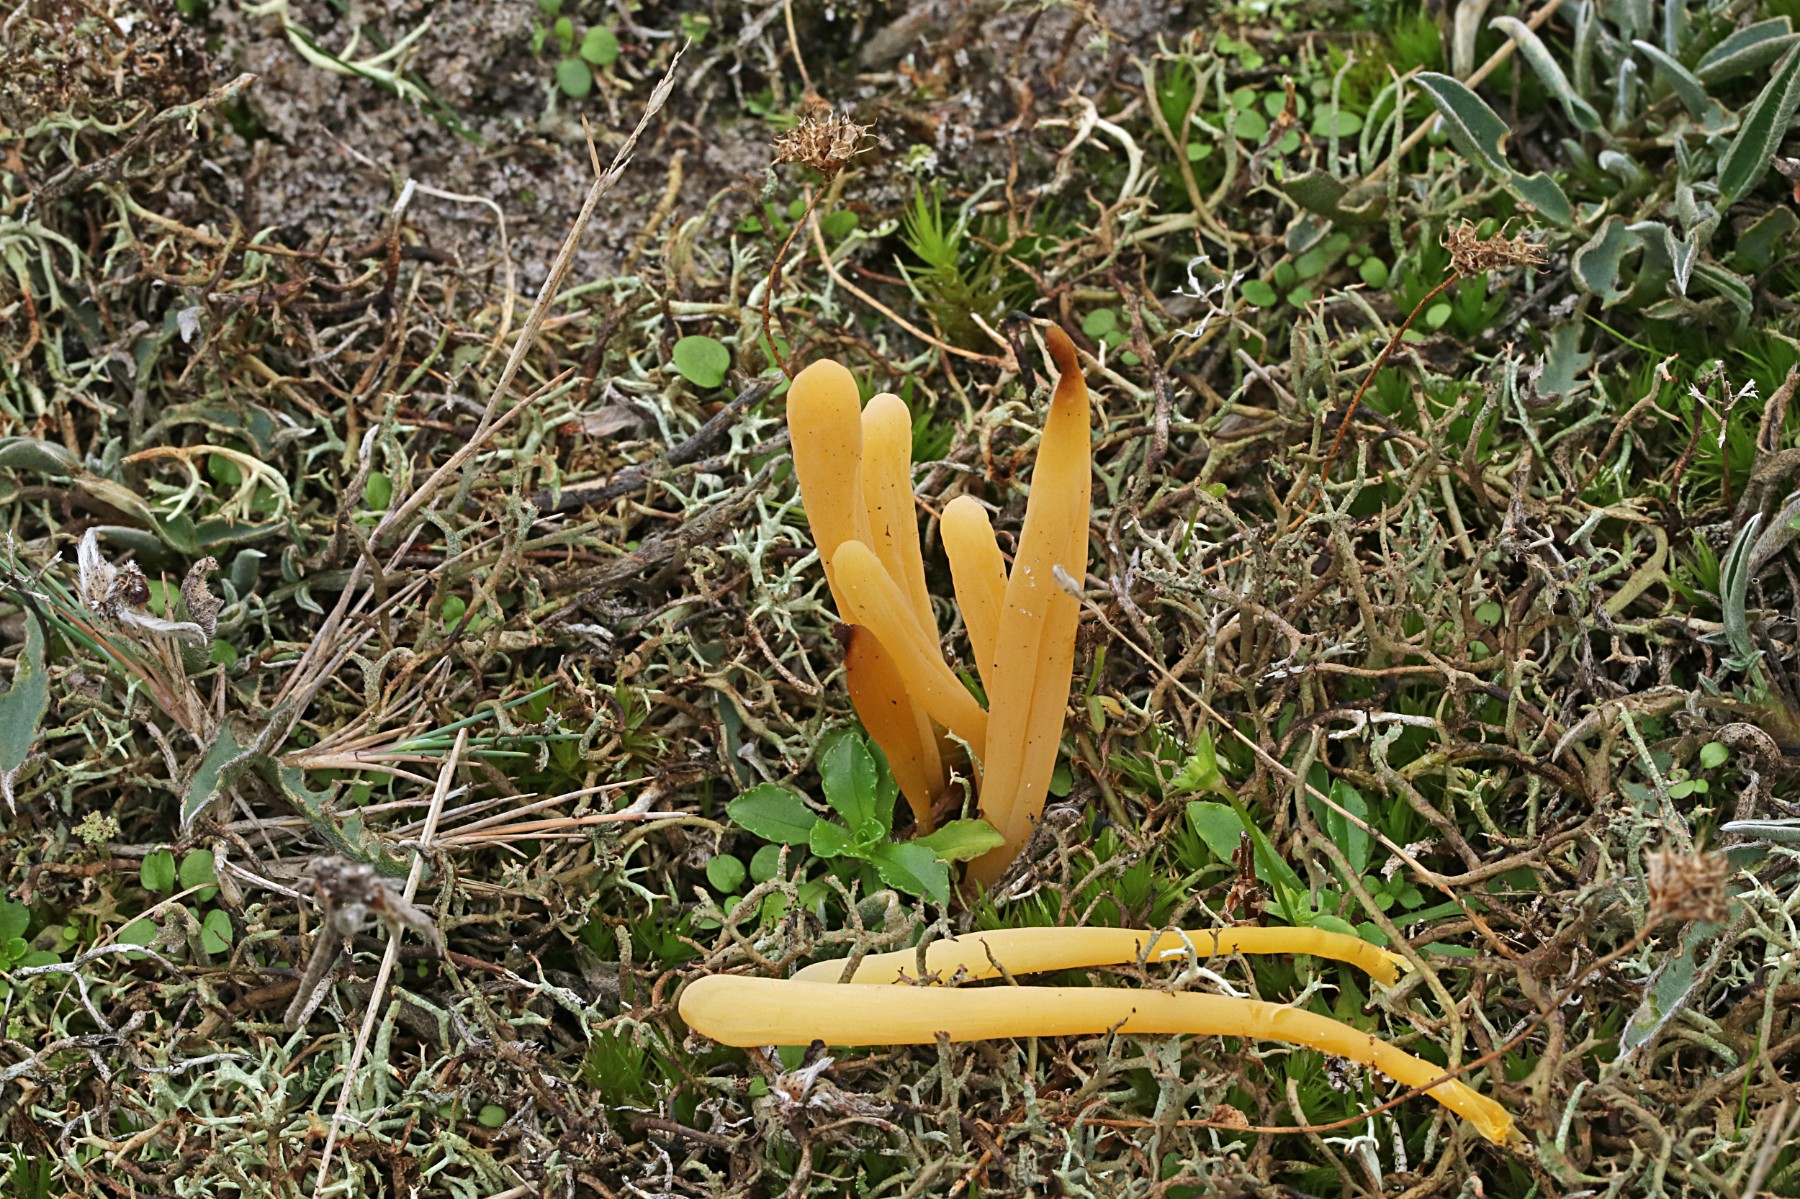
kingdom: Fungi
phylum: Basidiomycota
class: Agaricomycetes
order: Agaricales
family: Clavariaceae
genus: Clavaria
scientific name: Clavaria argillacea
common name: lerfarvet køllesvamp
